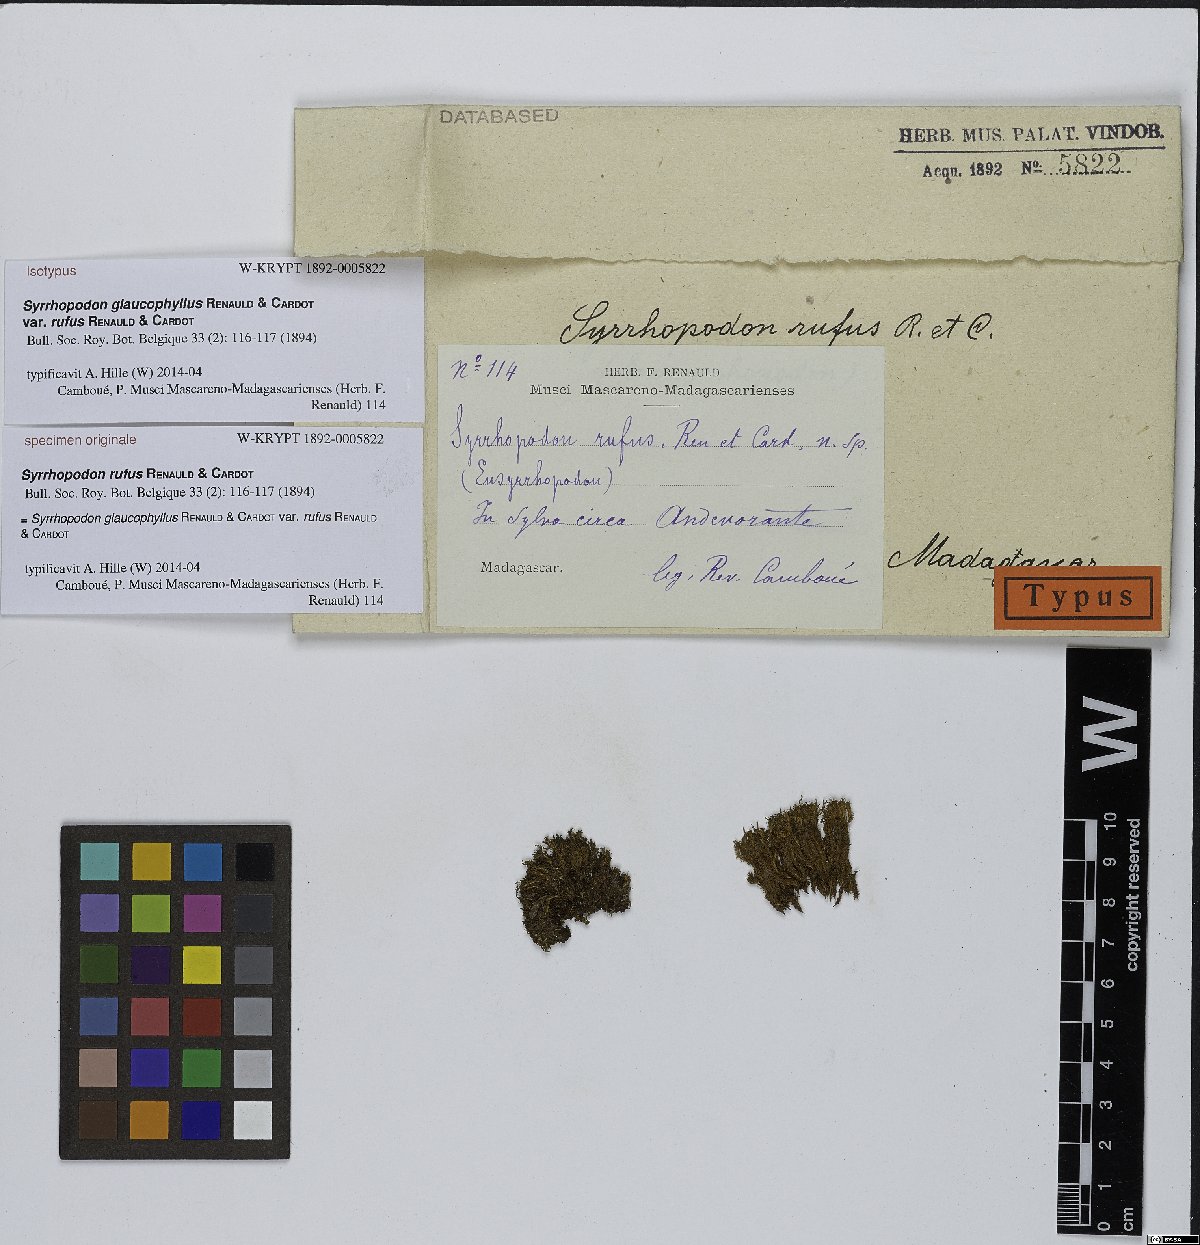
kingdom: Plantae
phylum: Bryophyta
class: Bryopsida
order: Dicranales
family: Calymperaceae
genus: Syrrhopodon
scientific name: Syrrhopodon apertifolius
